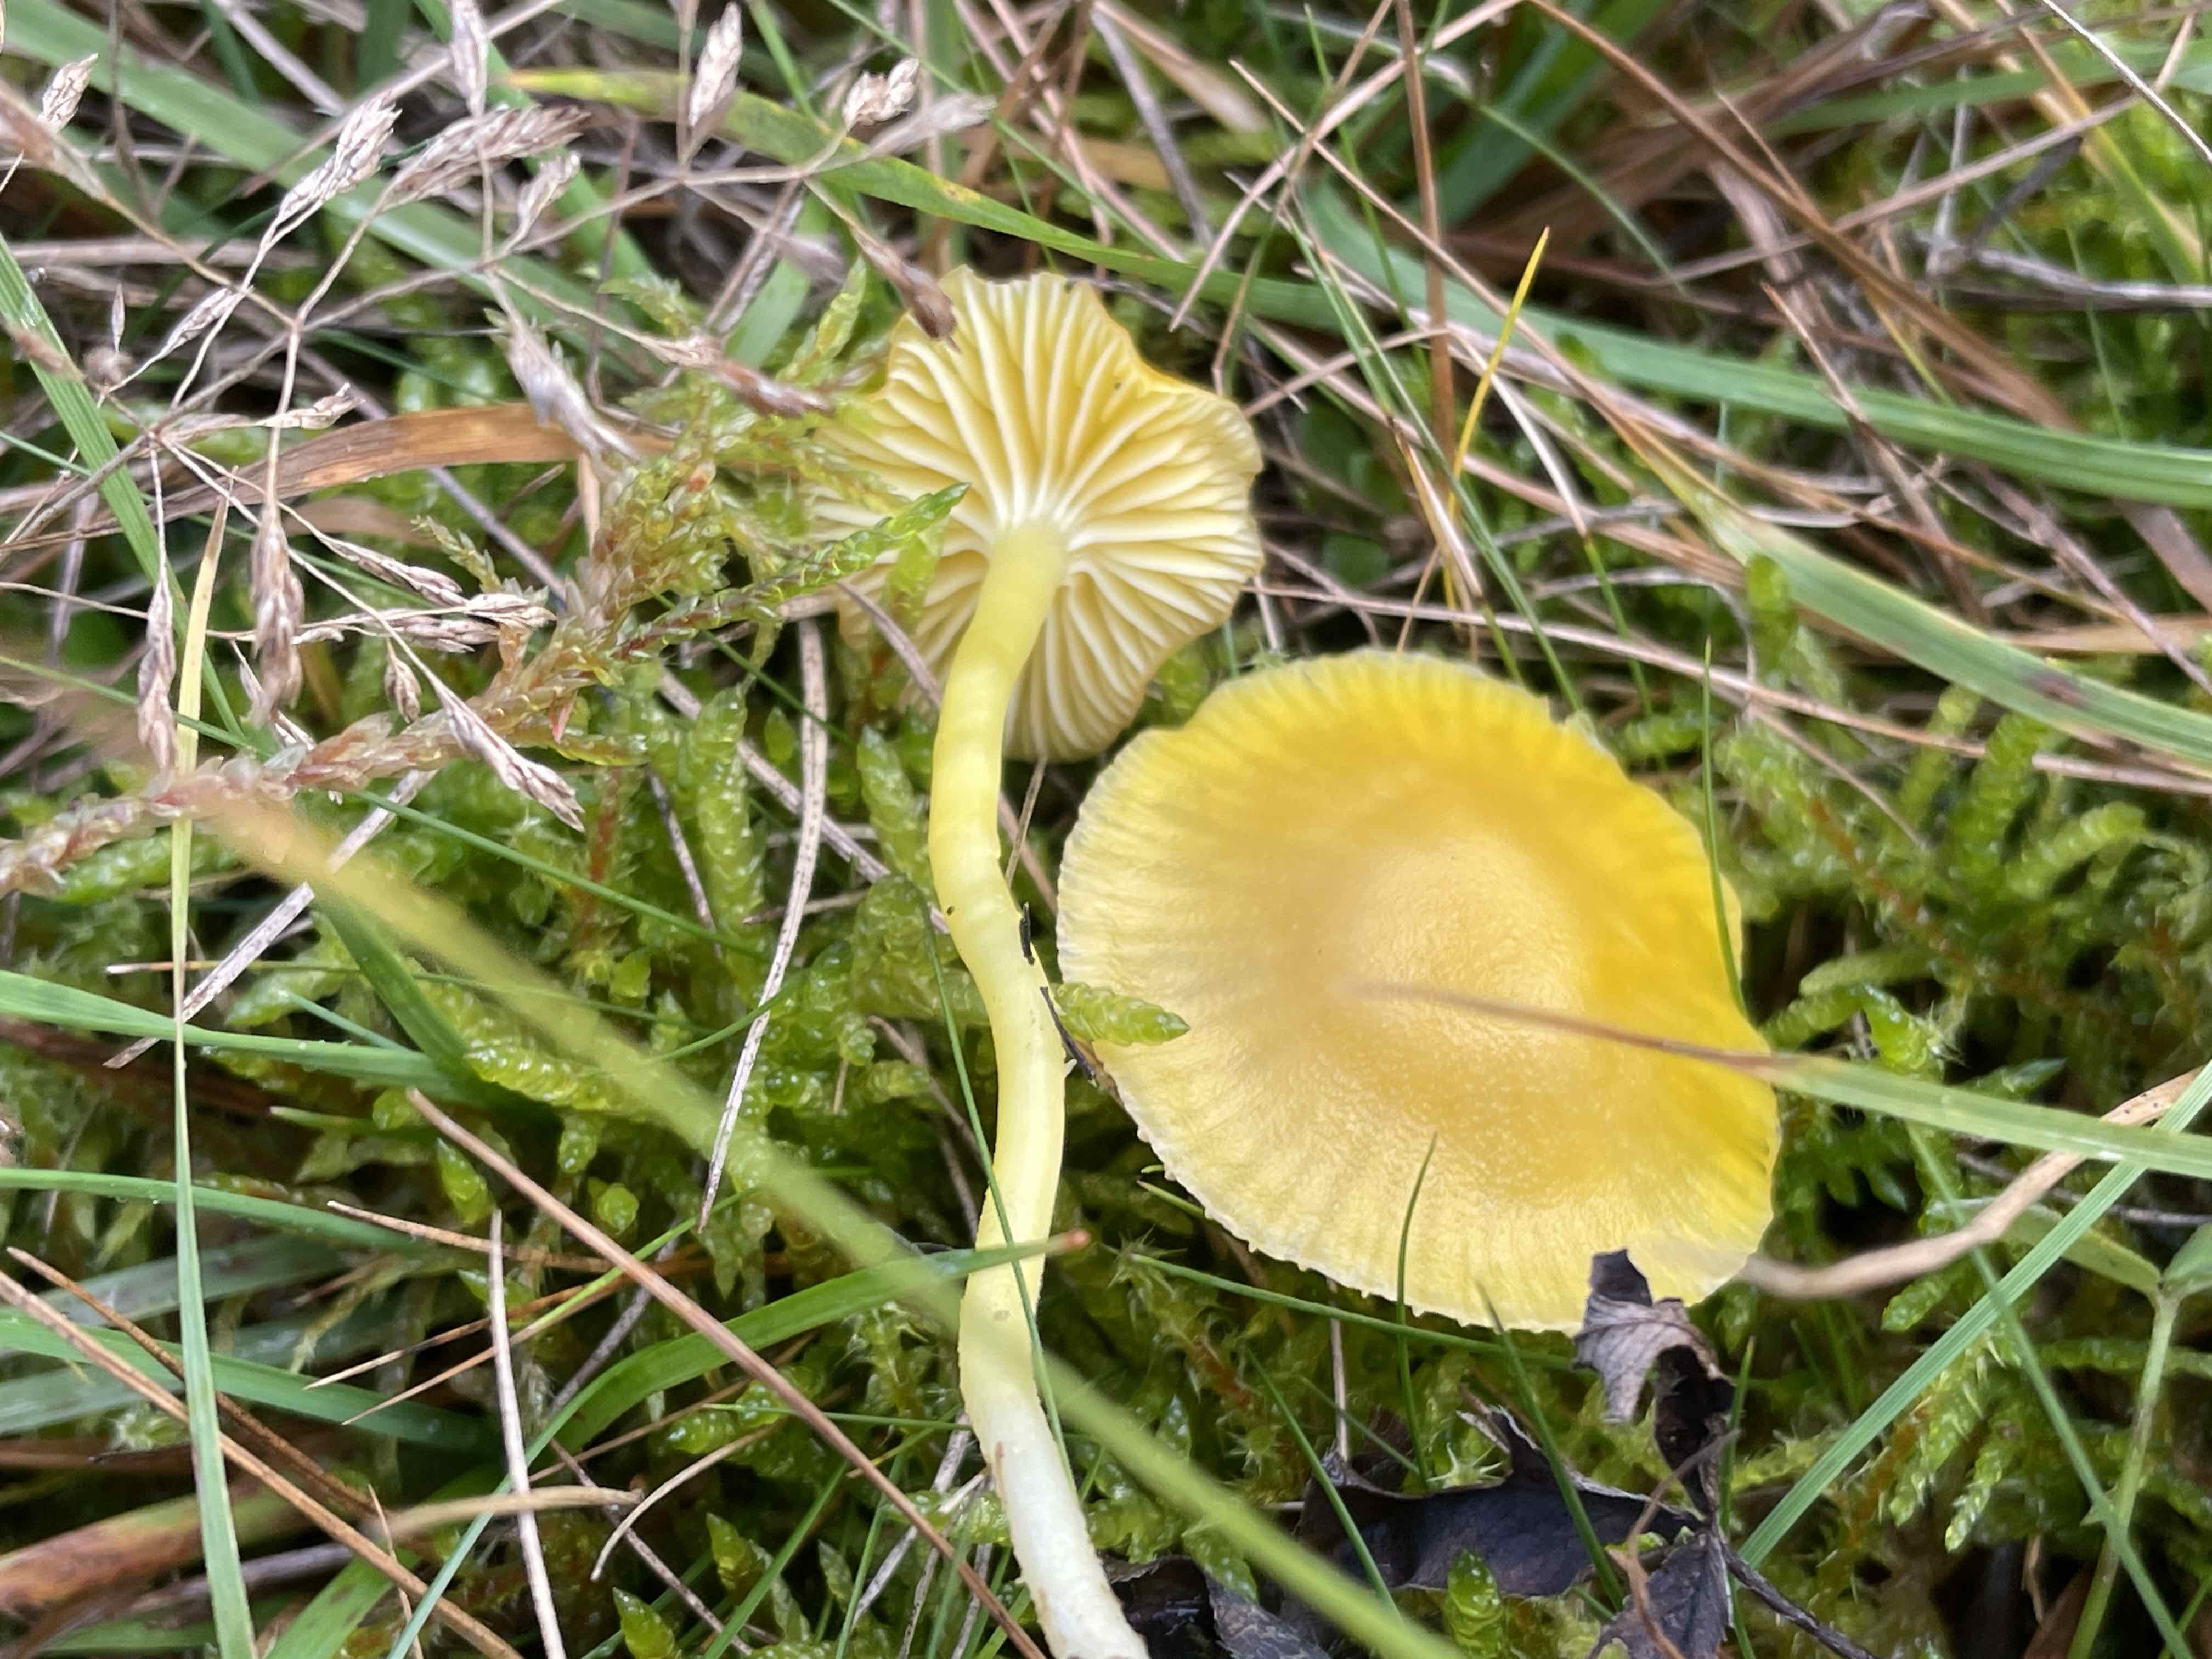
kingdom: Fungi
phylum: Basidiomycota
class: Agaricomycetes
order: Agaricales
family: Hygrophoraceae
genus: Hygrocybe
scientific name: Hygrocybe ceracea
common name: voksgul vokshat
